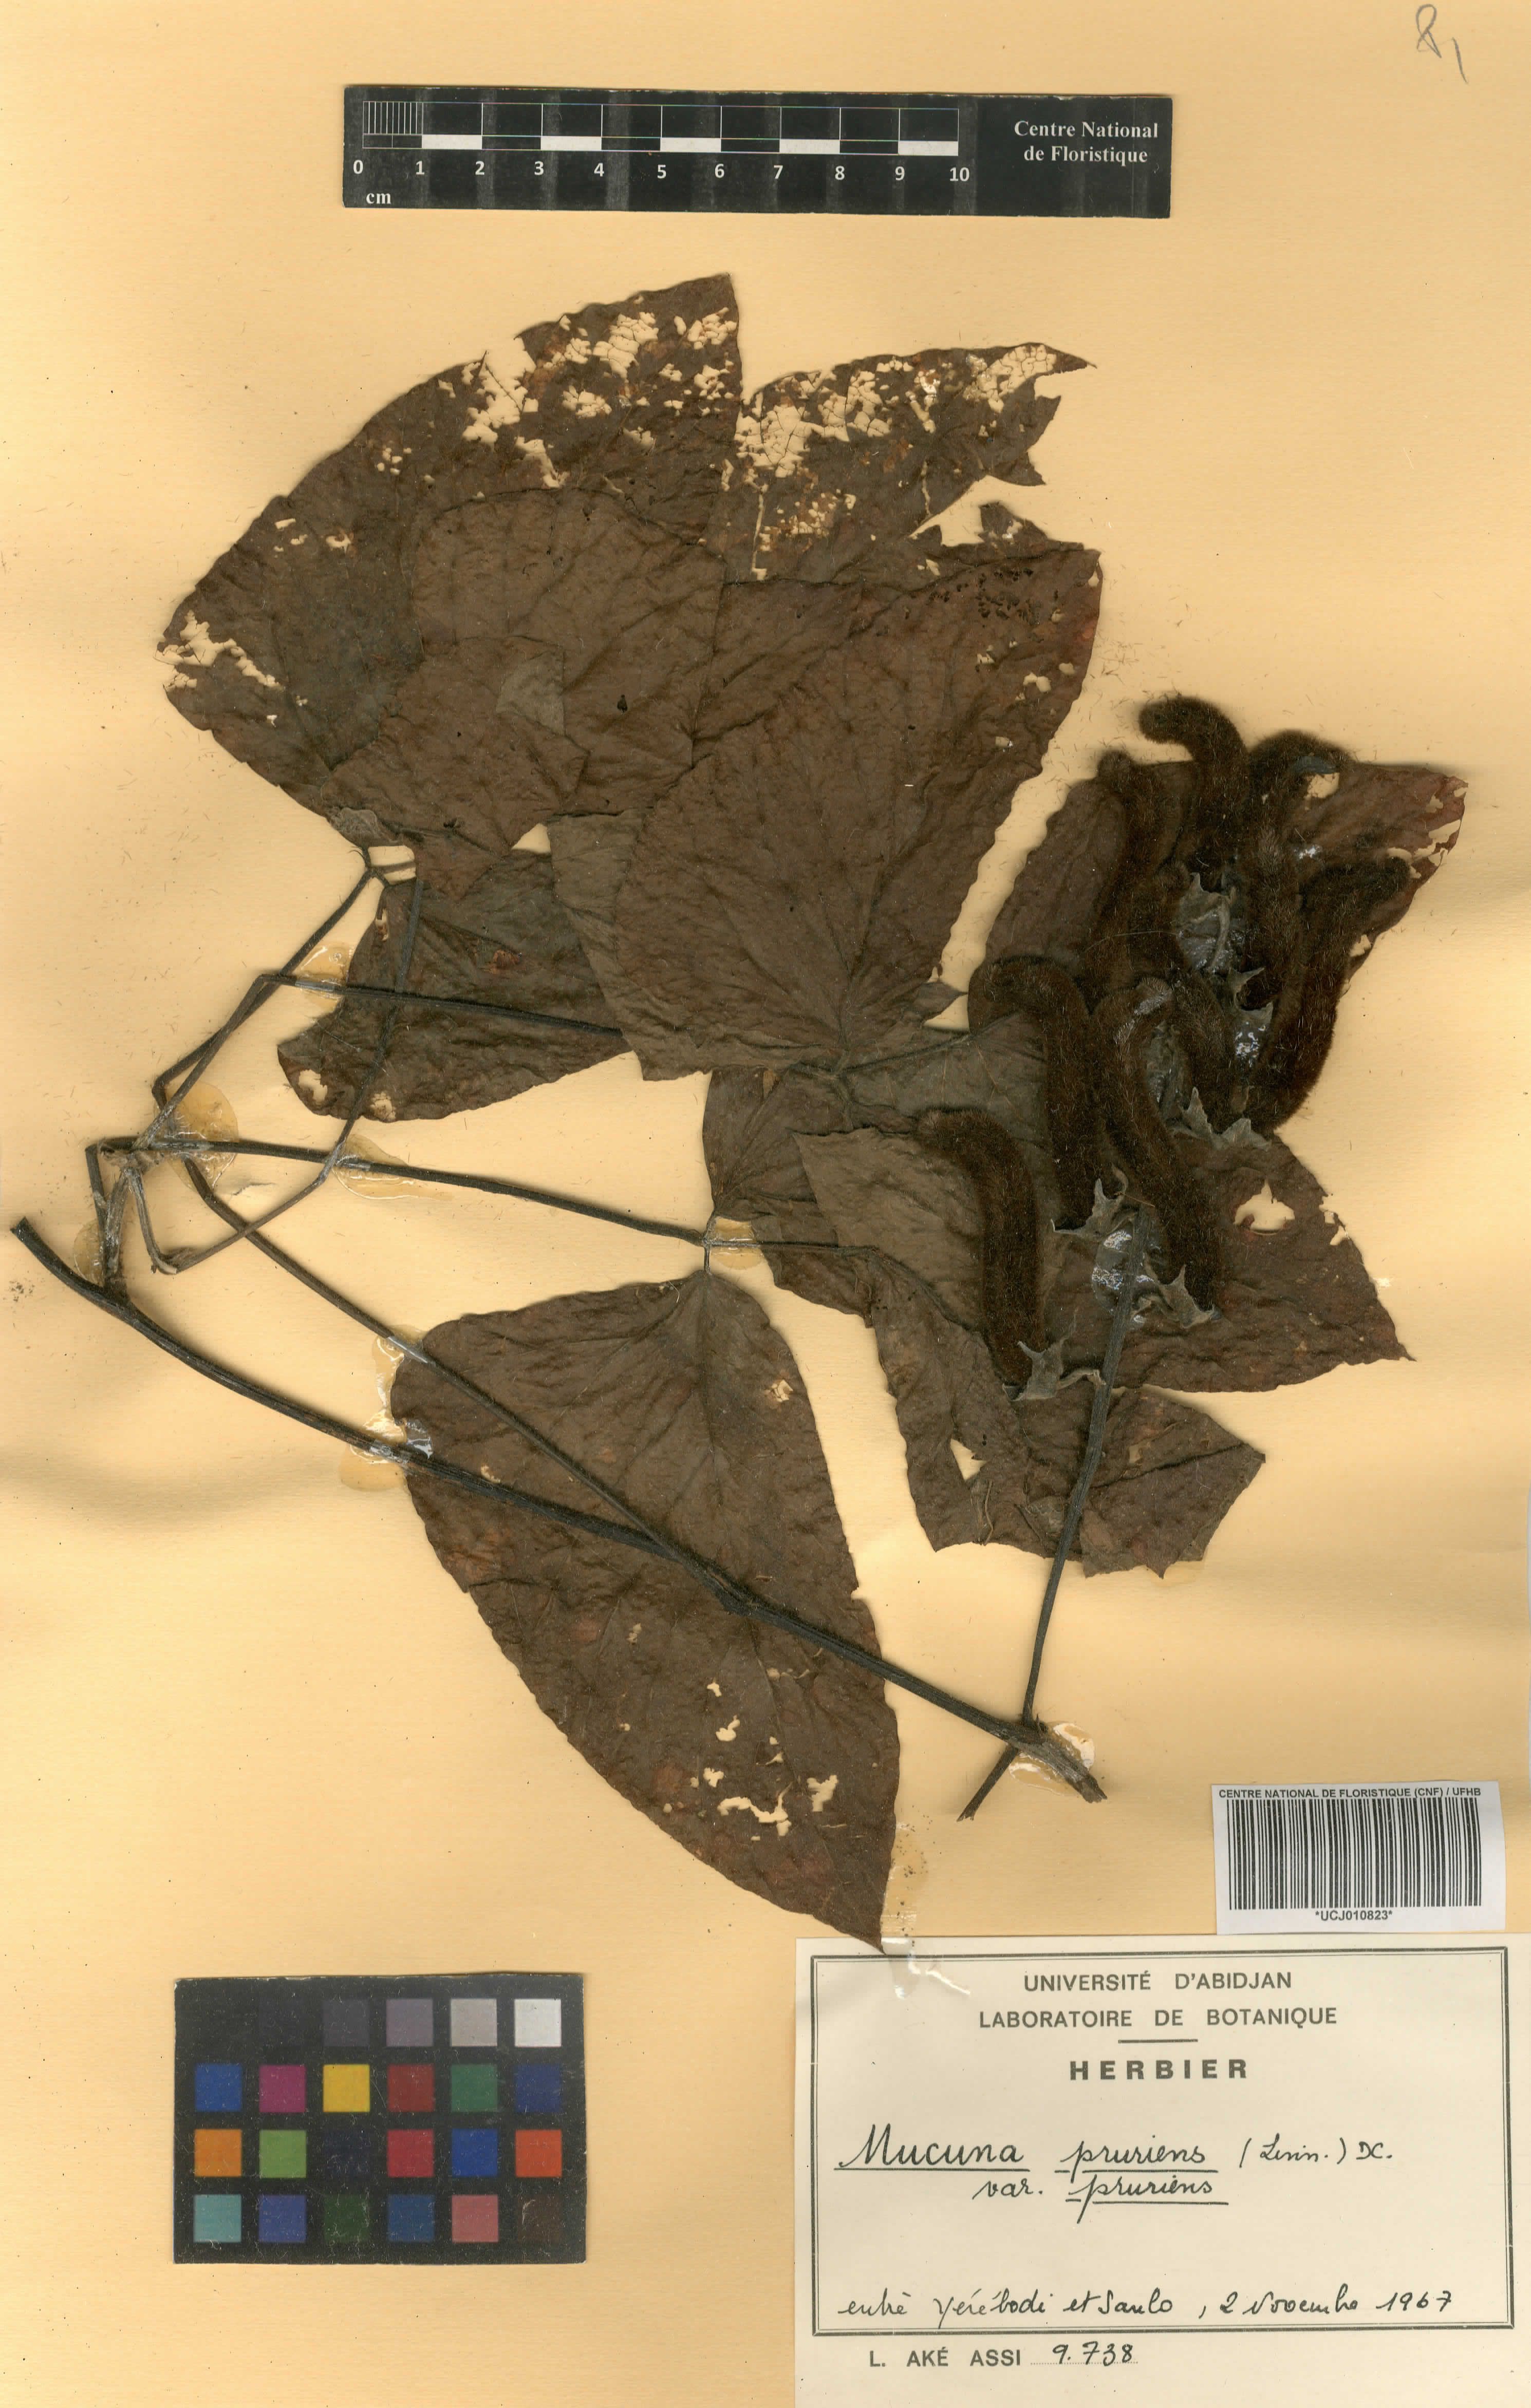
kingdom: Plantae
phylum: Tracheophyta
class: Magnoliopsida
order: Fabales
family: Fabaceae
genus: Mucuna
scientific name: Mucuna pruriens
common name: Cow-itch
